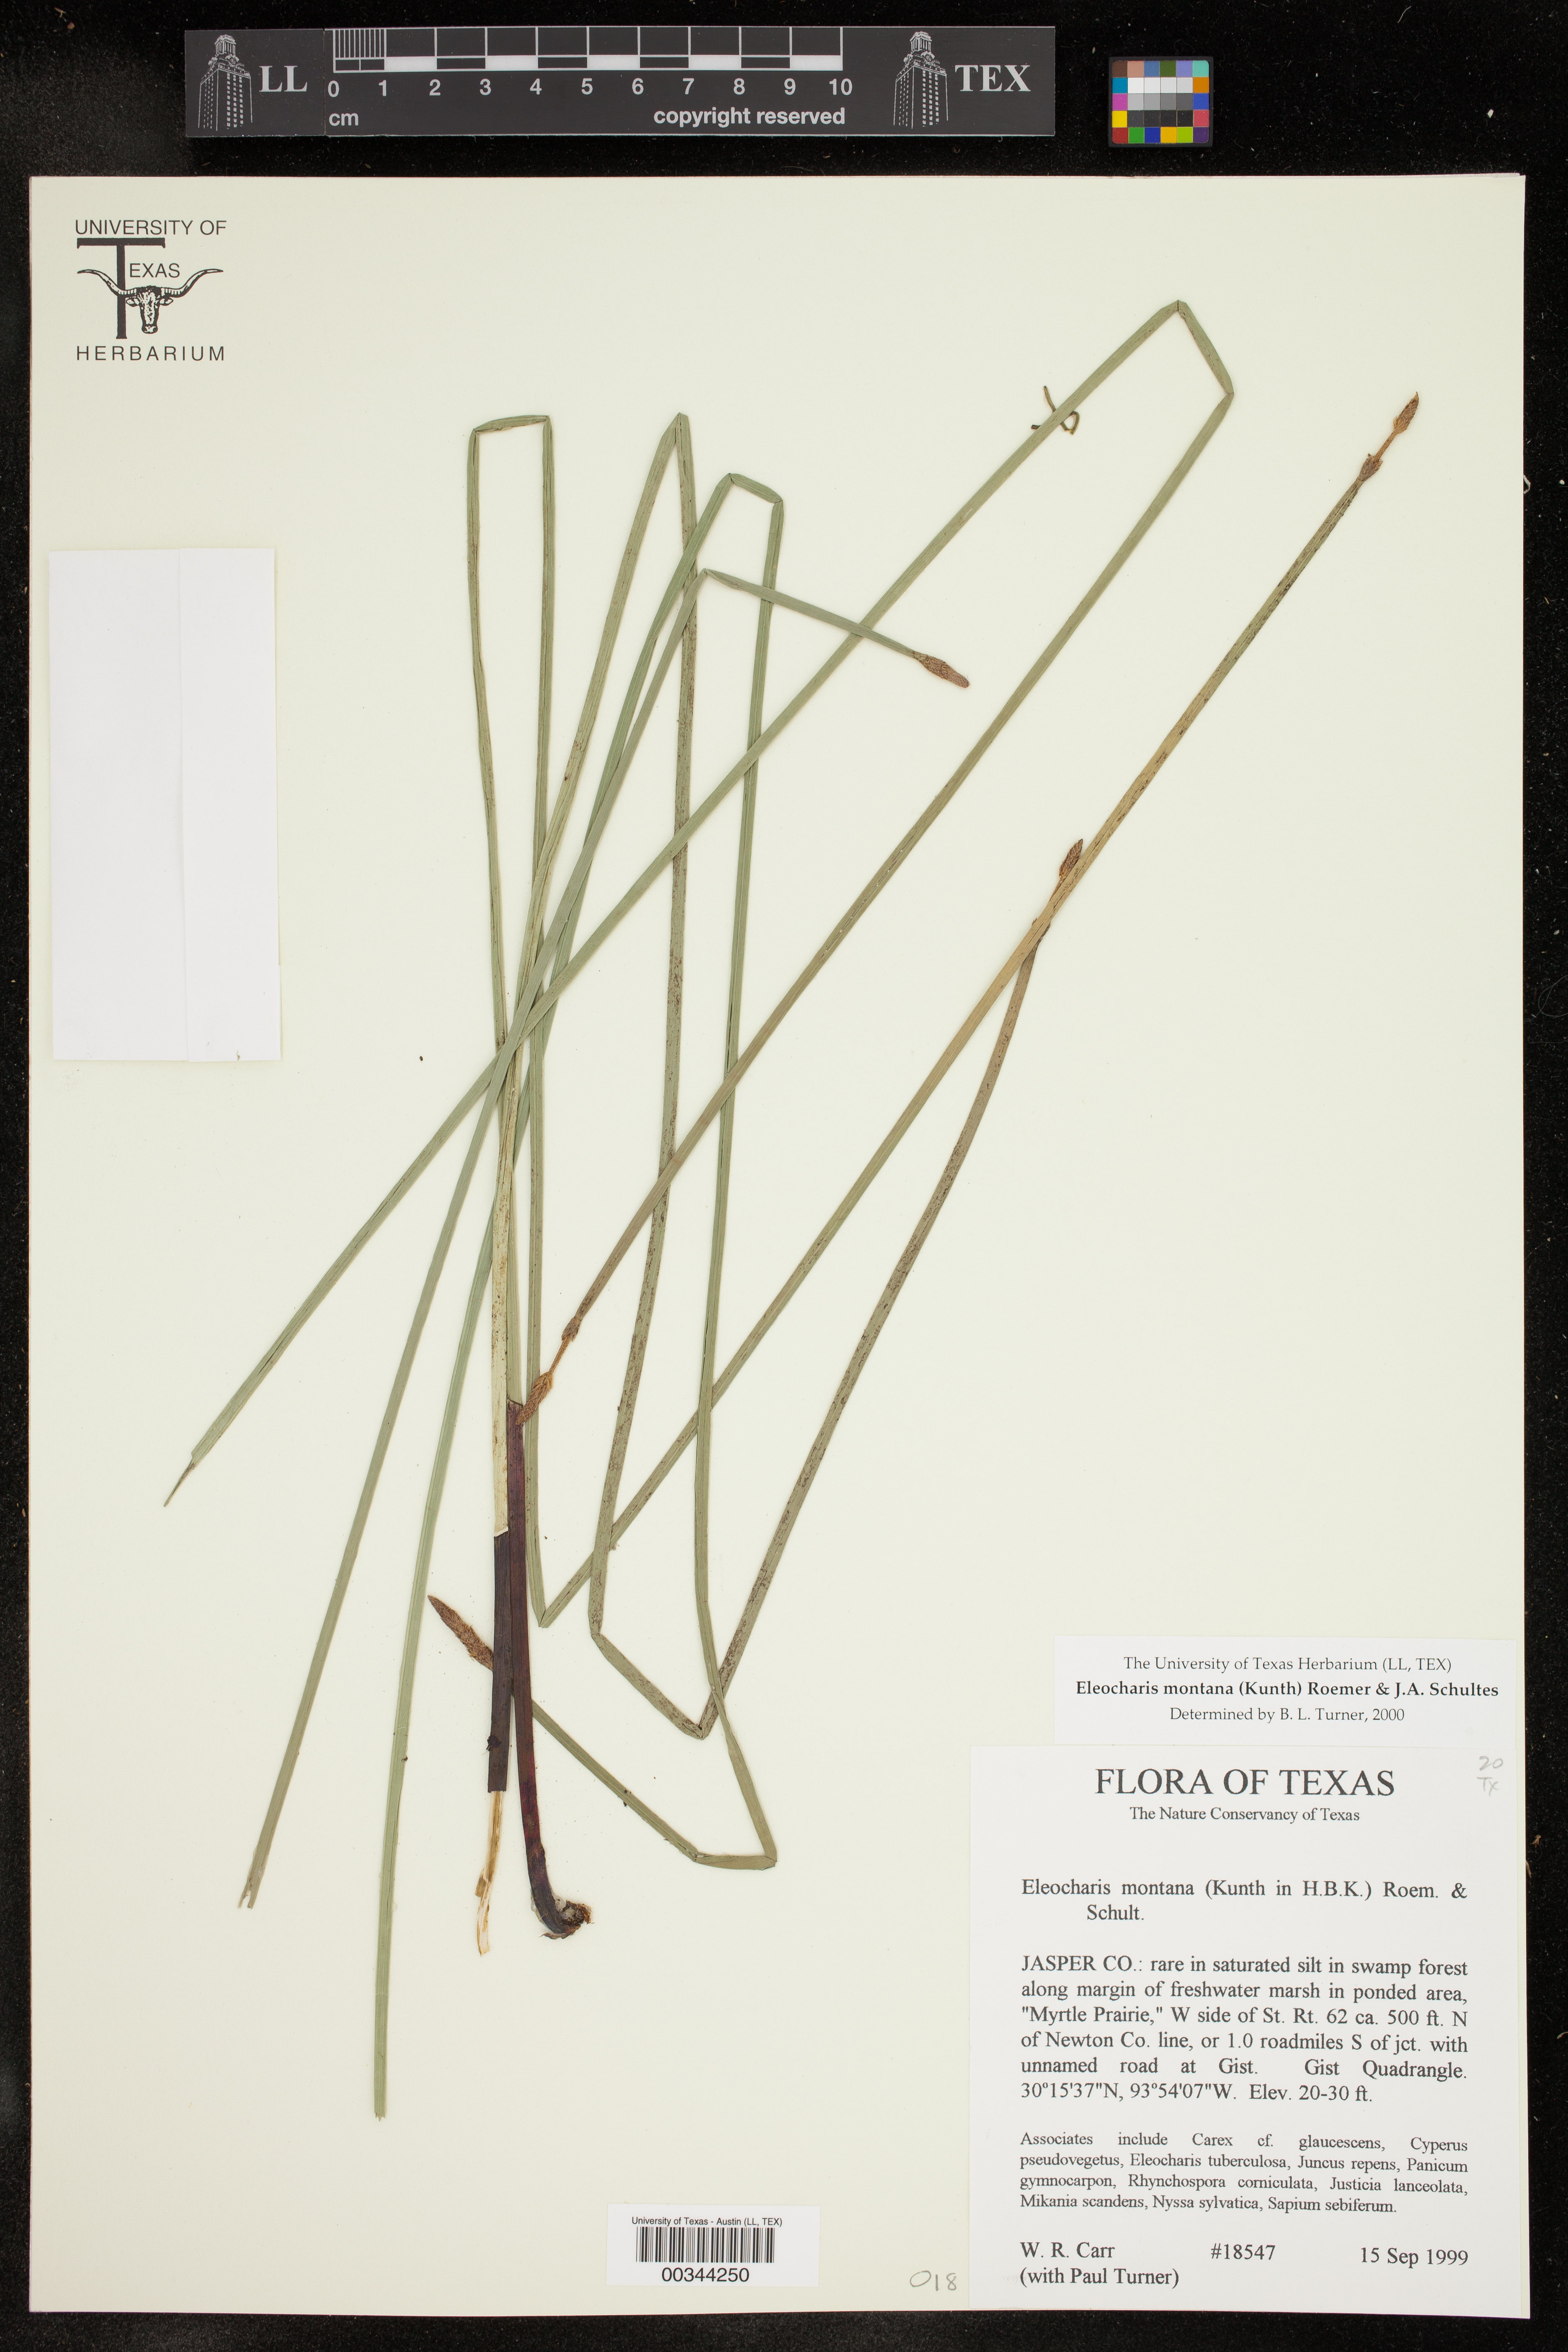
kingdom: Plantae
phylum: Tracheophyta
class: Liliopsida
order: Poales
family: Cyperaceae
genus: Eleocharis
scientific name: Eleocharis montana
